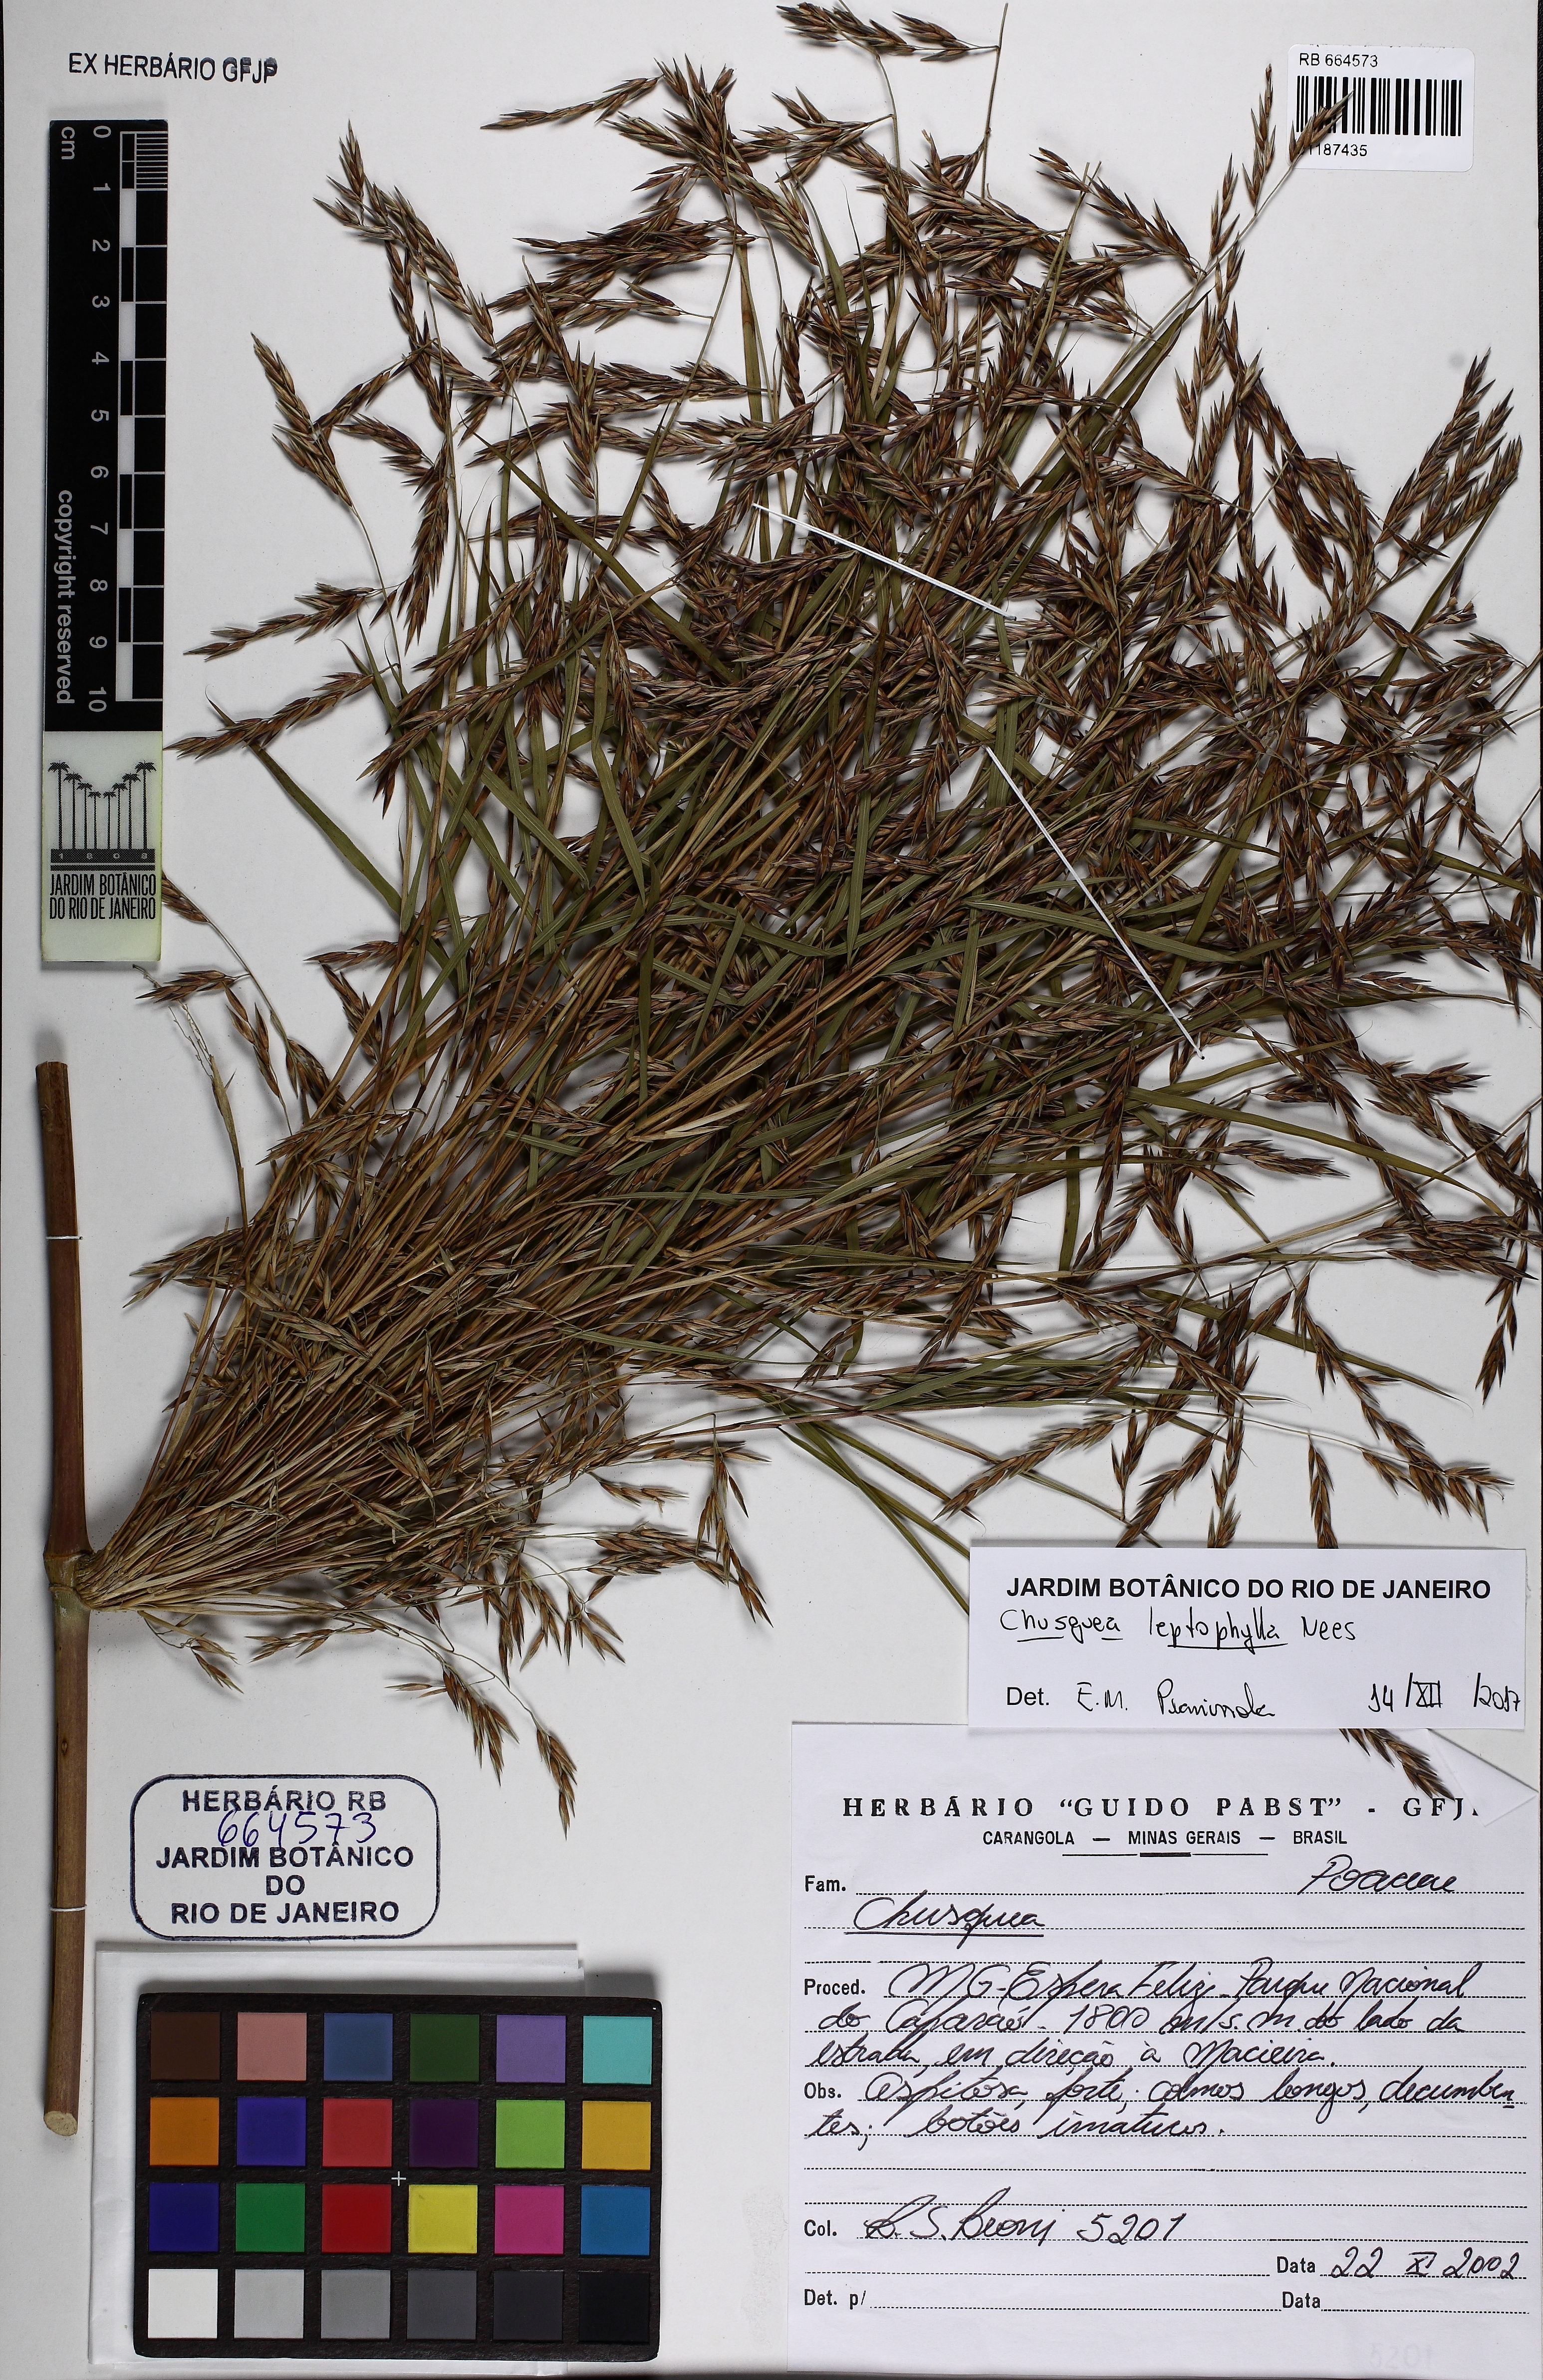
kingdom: Plantae
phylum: Tracheophyta
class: Liliopsida
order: Poales
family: Poaceae
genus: Chusquea
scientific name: Chusquea leptophylla
